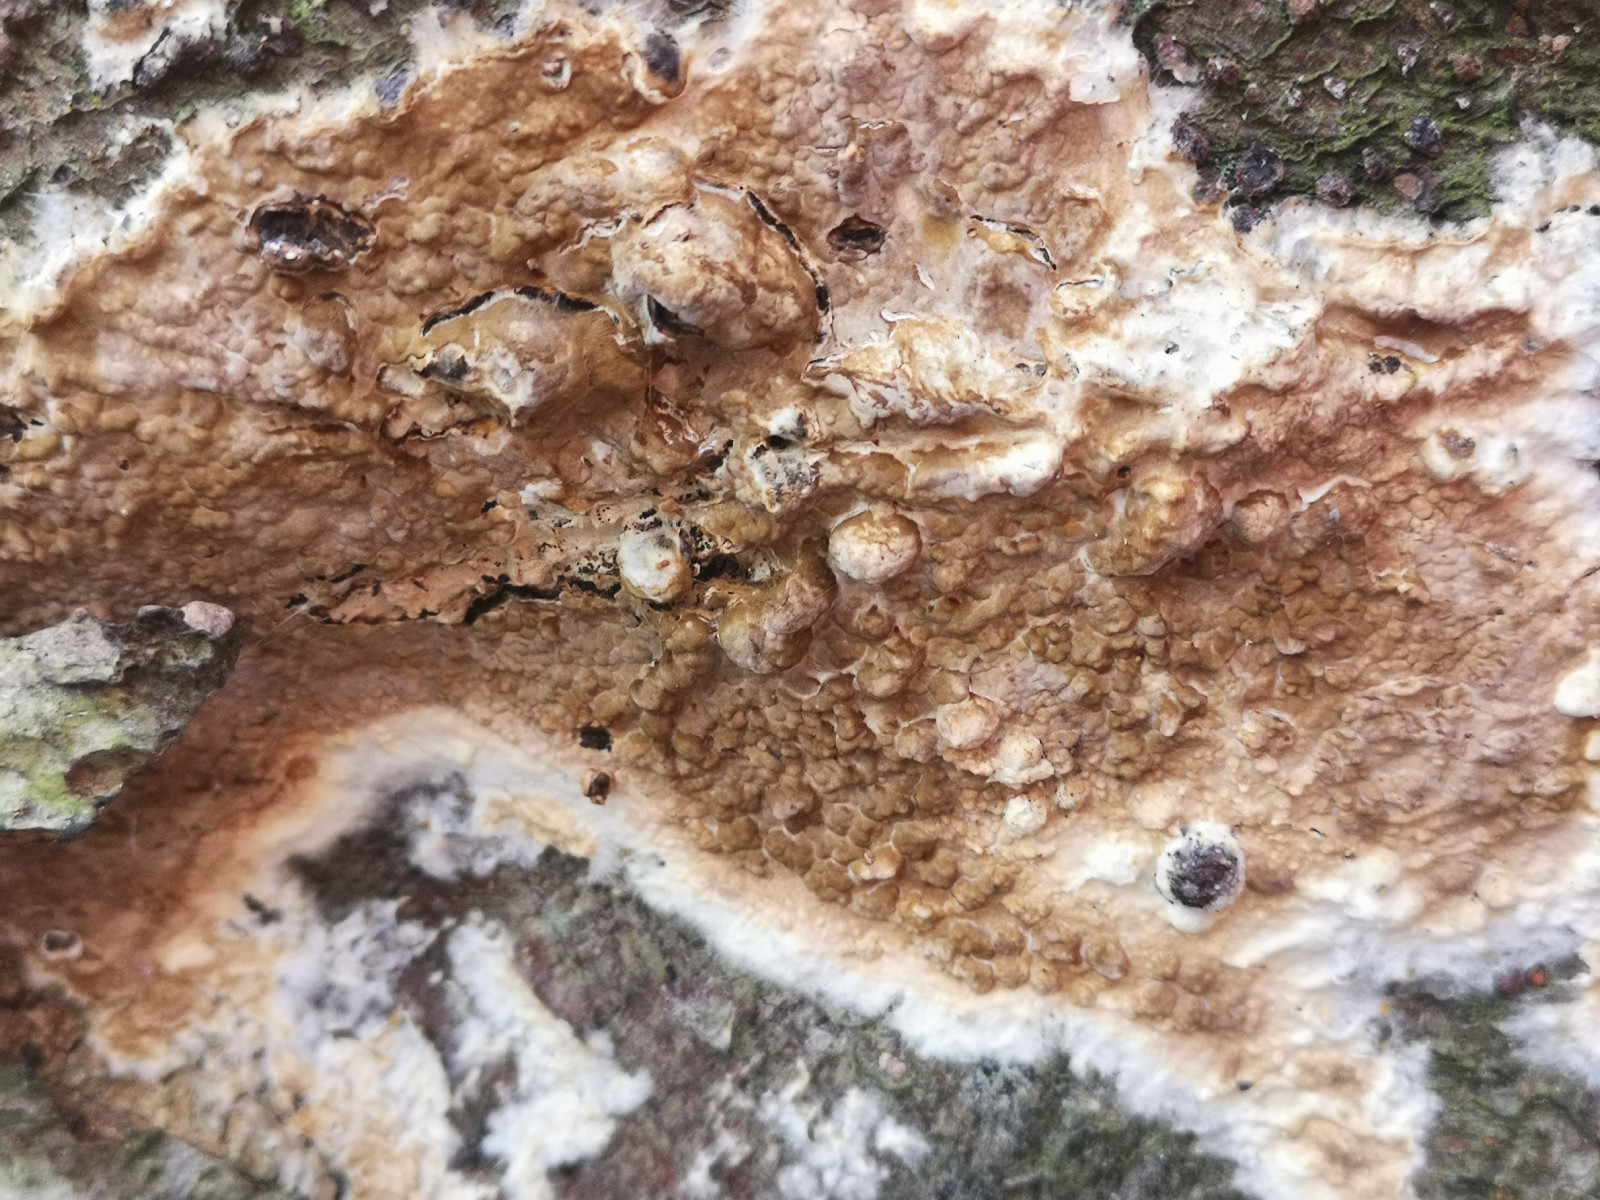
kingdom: Fungi
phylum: Basidiomycota
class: Agaricomycetes
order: Boletales
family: Coniophoraceae
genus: Coniophora
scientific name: Coniophora puteana
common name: gul tømmersvamp
